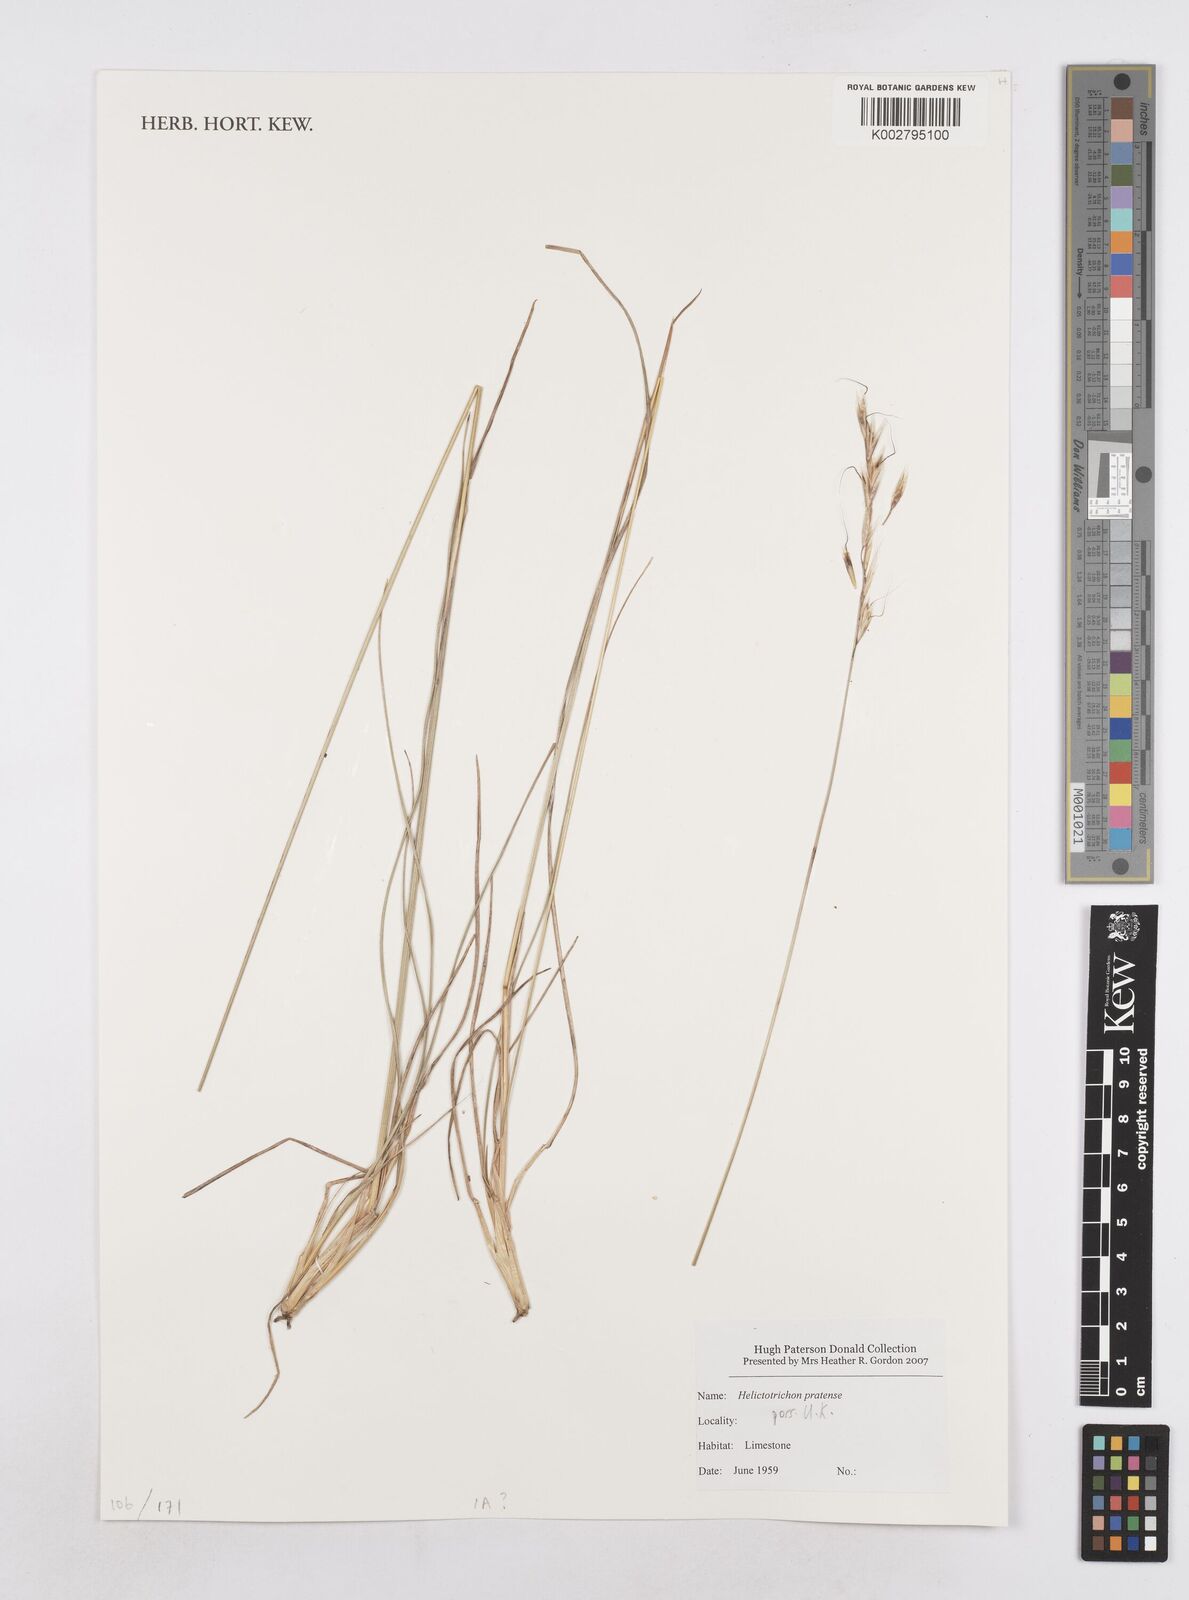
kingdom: Plantae
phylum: Tracheophyta
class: Liliopsida
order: Poales
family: Poaceae
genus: Helictochloa
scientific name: Helictochloa pratensis
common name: Meadow oat grass
